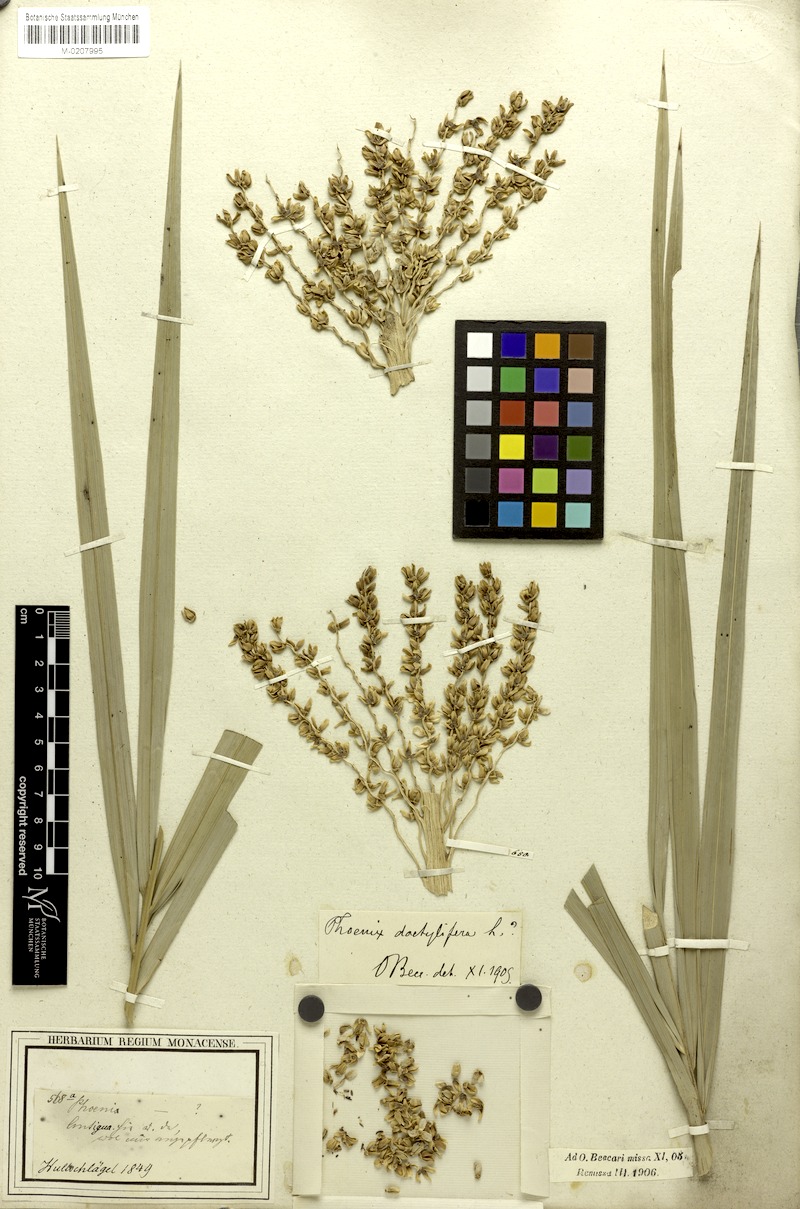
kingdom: Plantae
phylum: Tracheophyta
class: Liliopsida
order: Arecales
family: Arecaceae
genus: Phoenix
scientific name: Phoenix dactylifera
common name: Date palm
